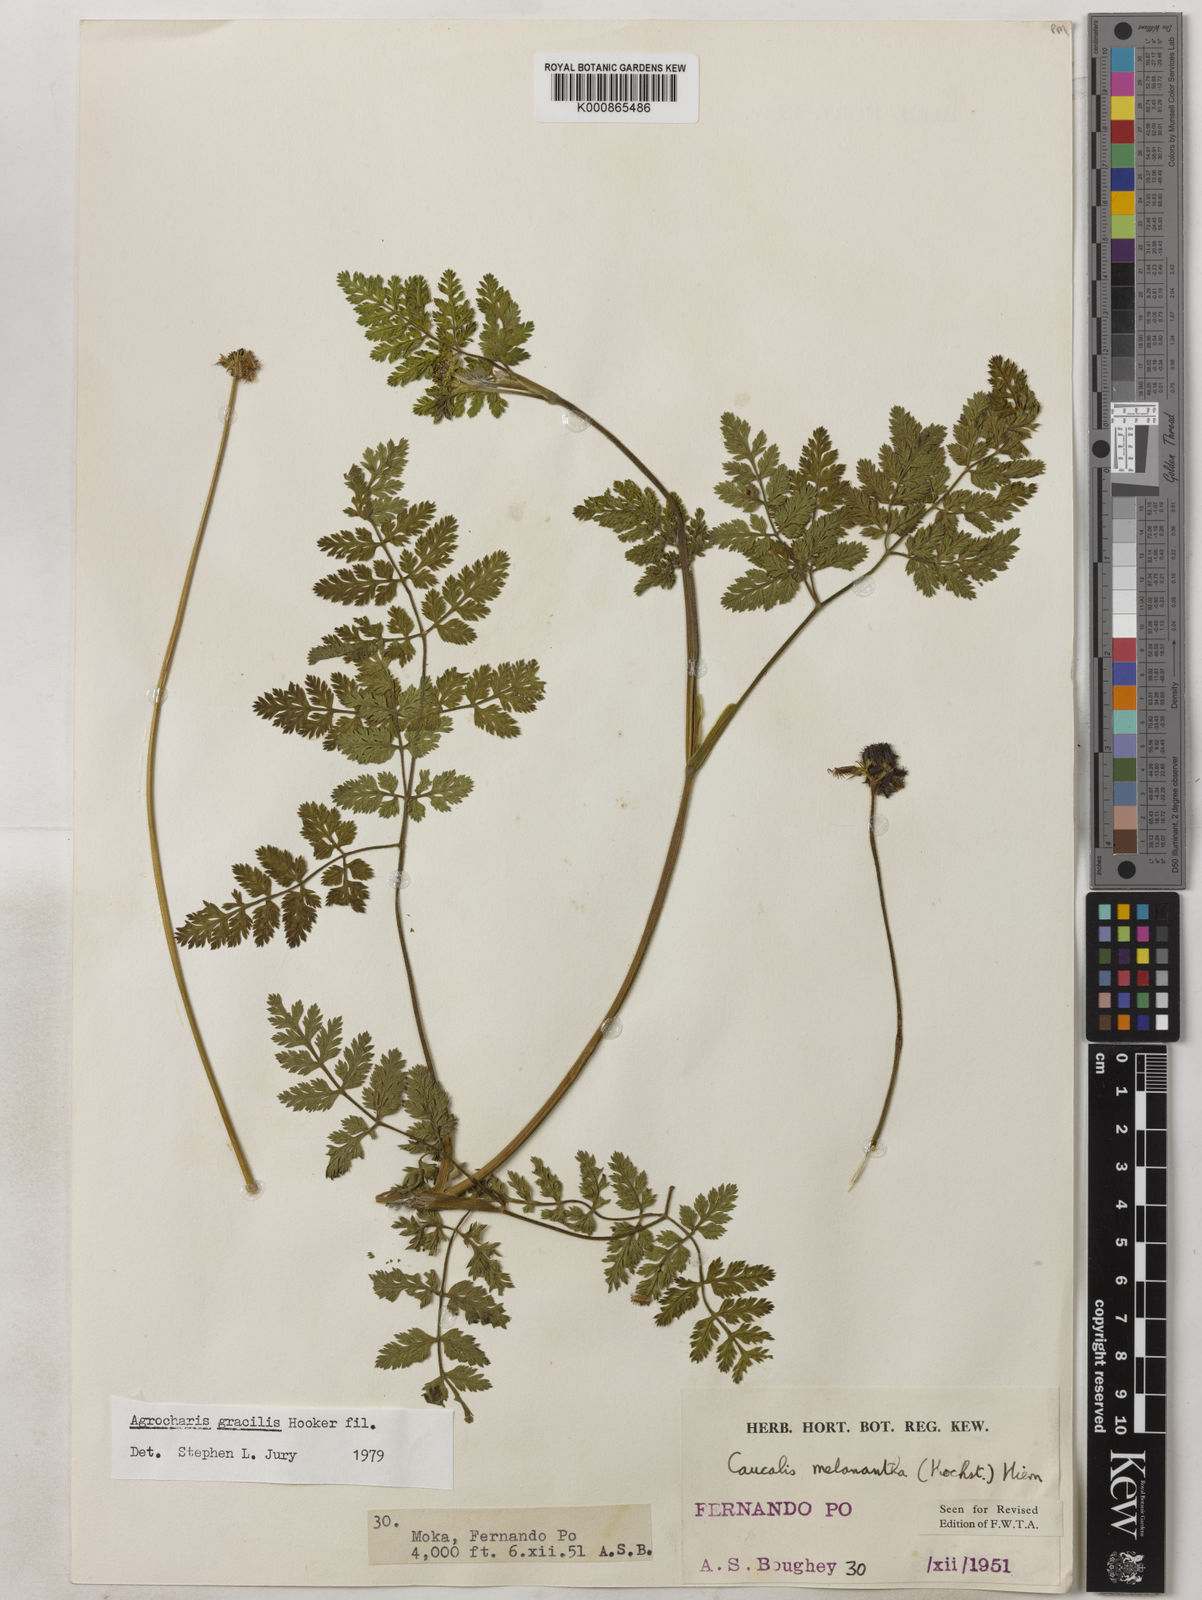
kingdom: Plantae
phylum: Tracheophyta
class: Magnoliopsida
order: Apiales
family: Apiaceae
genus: Daucus
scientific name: Daucus melananthus
